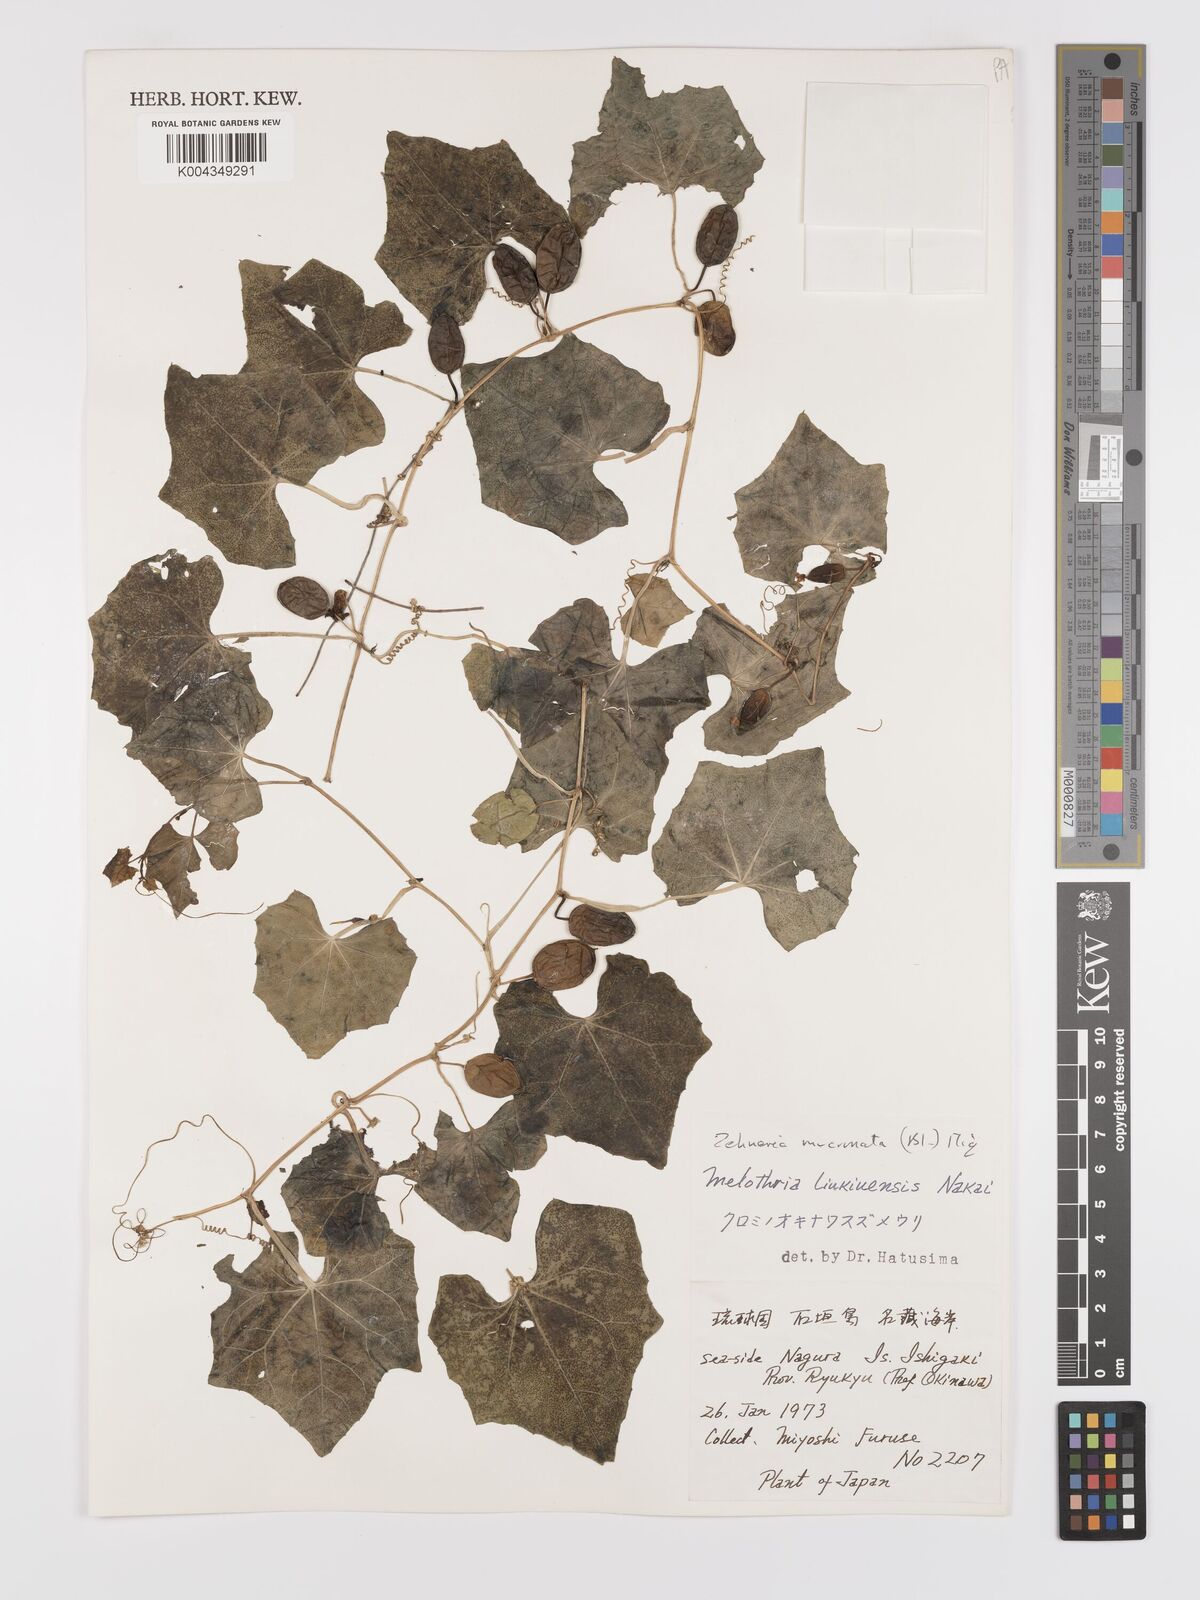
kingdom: Plantae
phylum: Tracheophyta
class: Magnoliopsida
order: Cucurbitales
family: Cucurbitaceae
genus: Zehneria
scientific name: Zehneria mucronata
